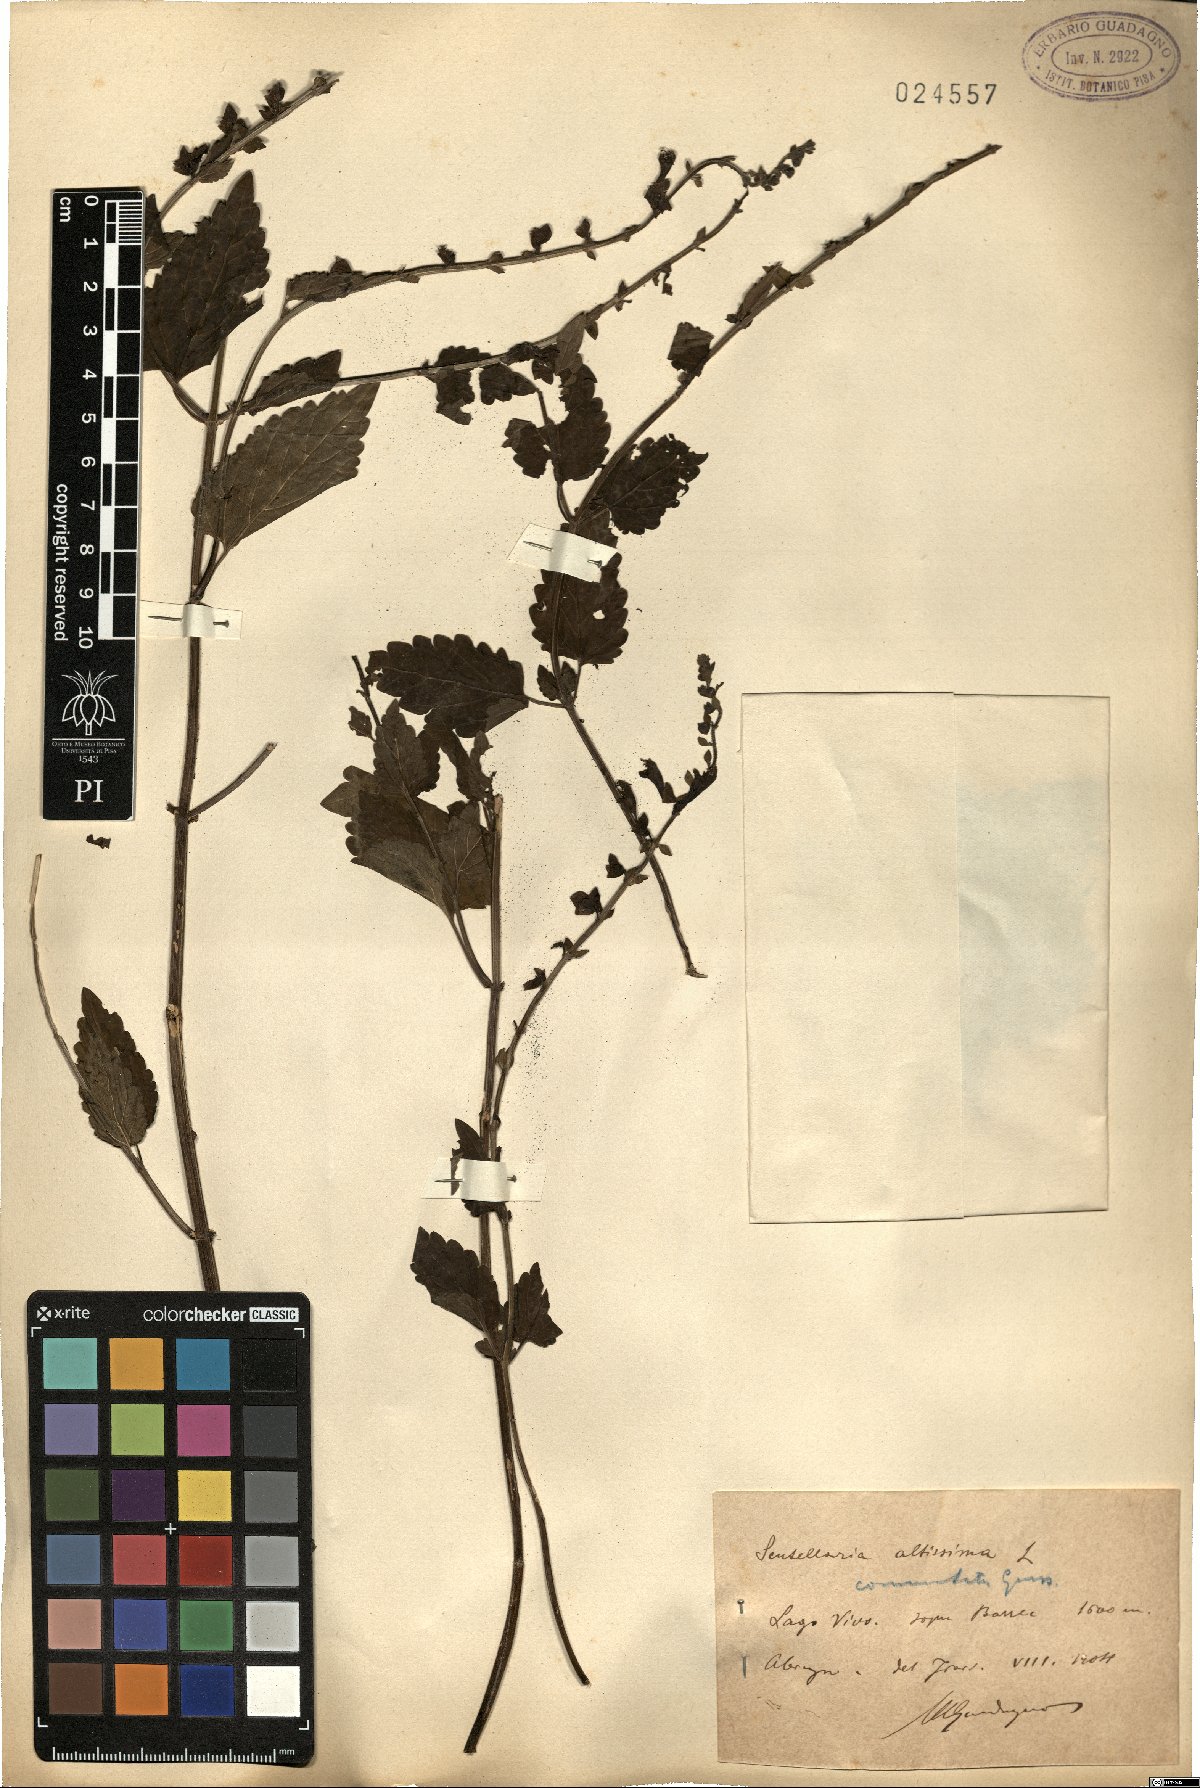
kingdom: Plantae
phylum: Tracheophyta
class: Magnoliopsida
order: Lamiales
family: Lamiaceae
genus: Scutellaria
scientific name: Scutellaria altissima
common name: Somerset skullcap
